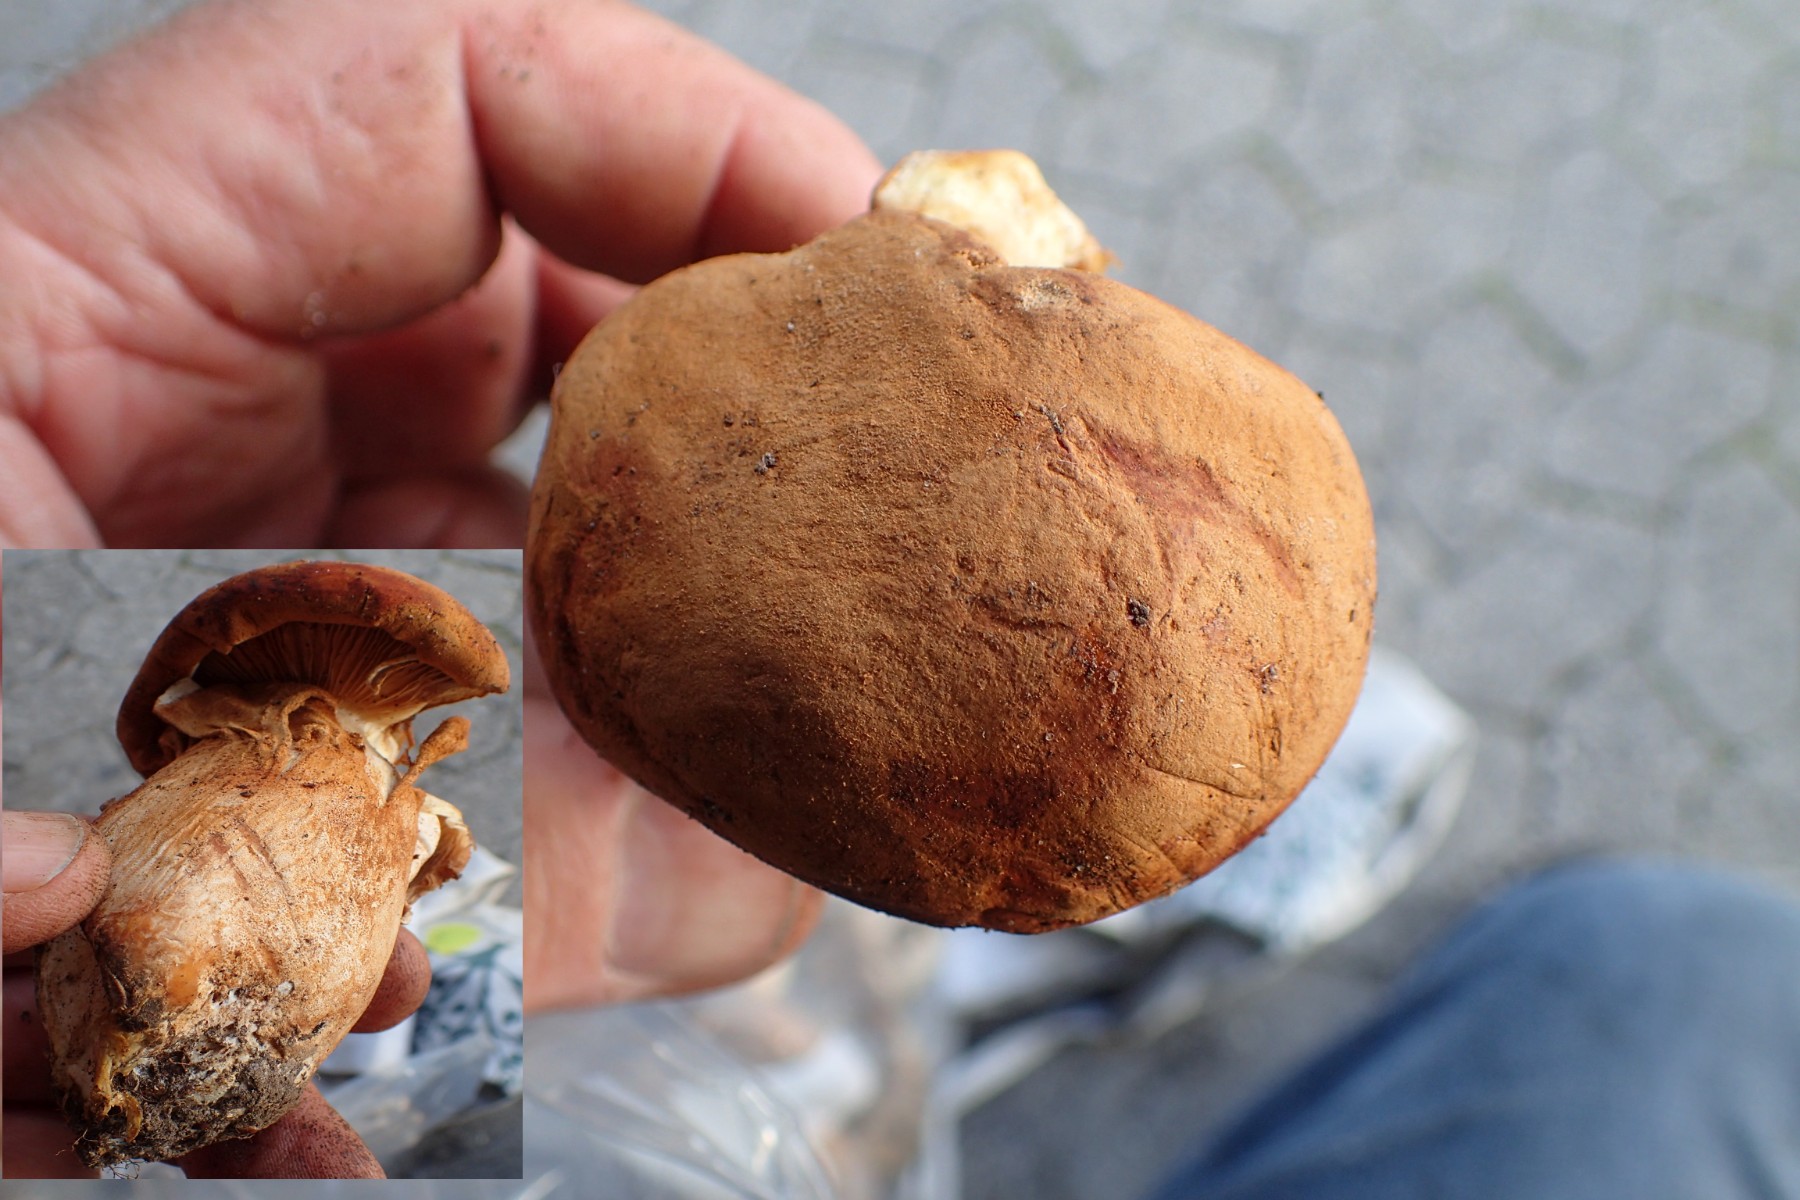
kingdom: Fungi
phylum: Basidiomycota
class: Agaricomycetes
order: Agaricales
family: Tricholomataceae
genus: Phaeolepiota
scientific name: Phaeolepiota aurea
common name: gyldenhat
